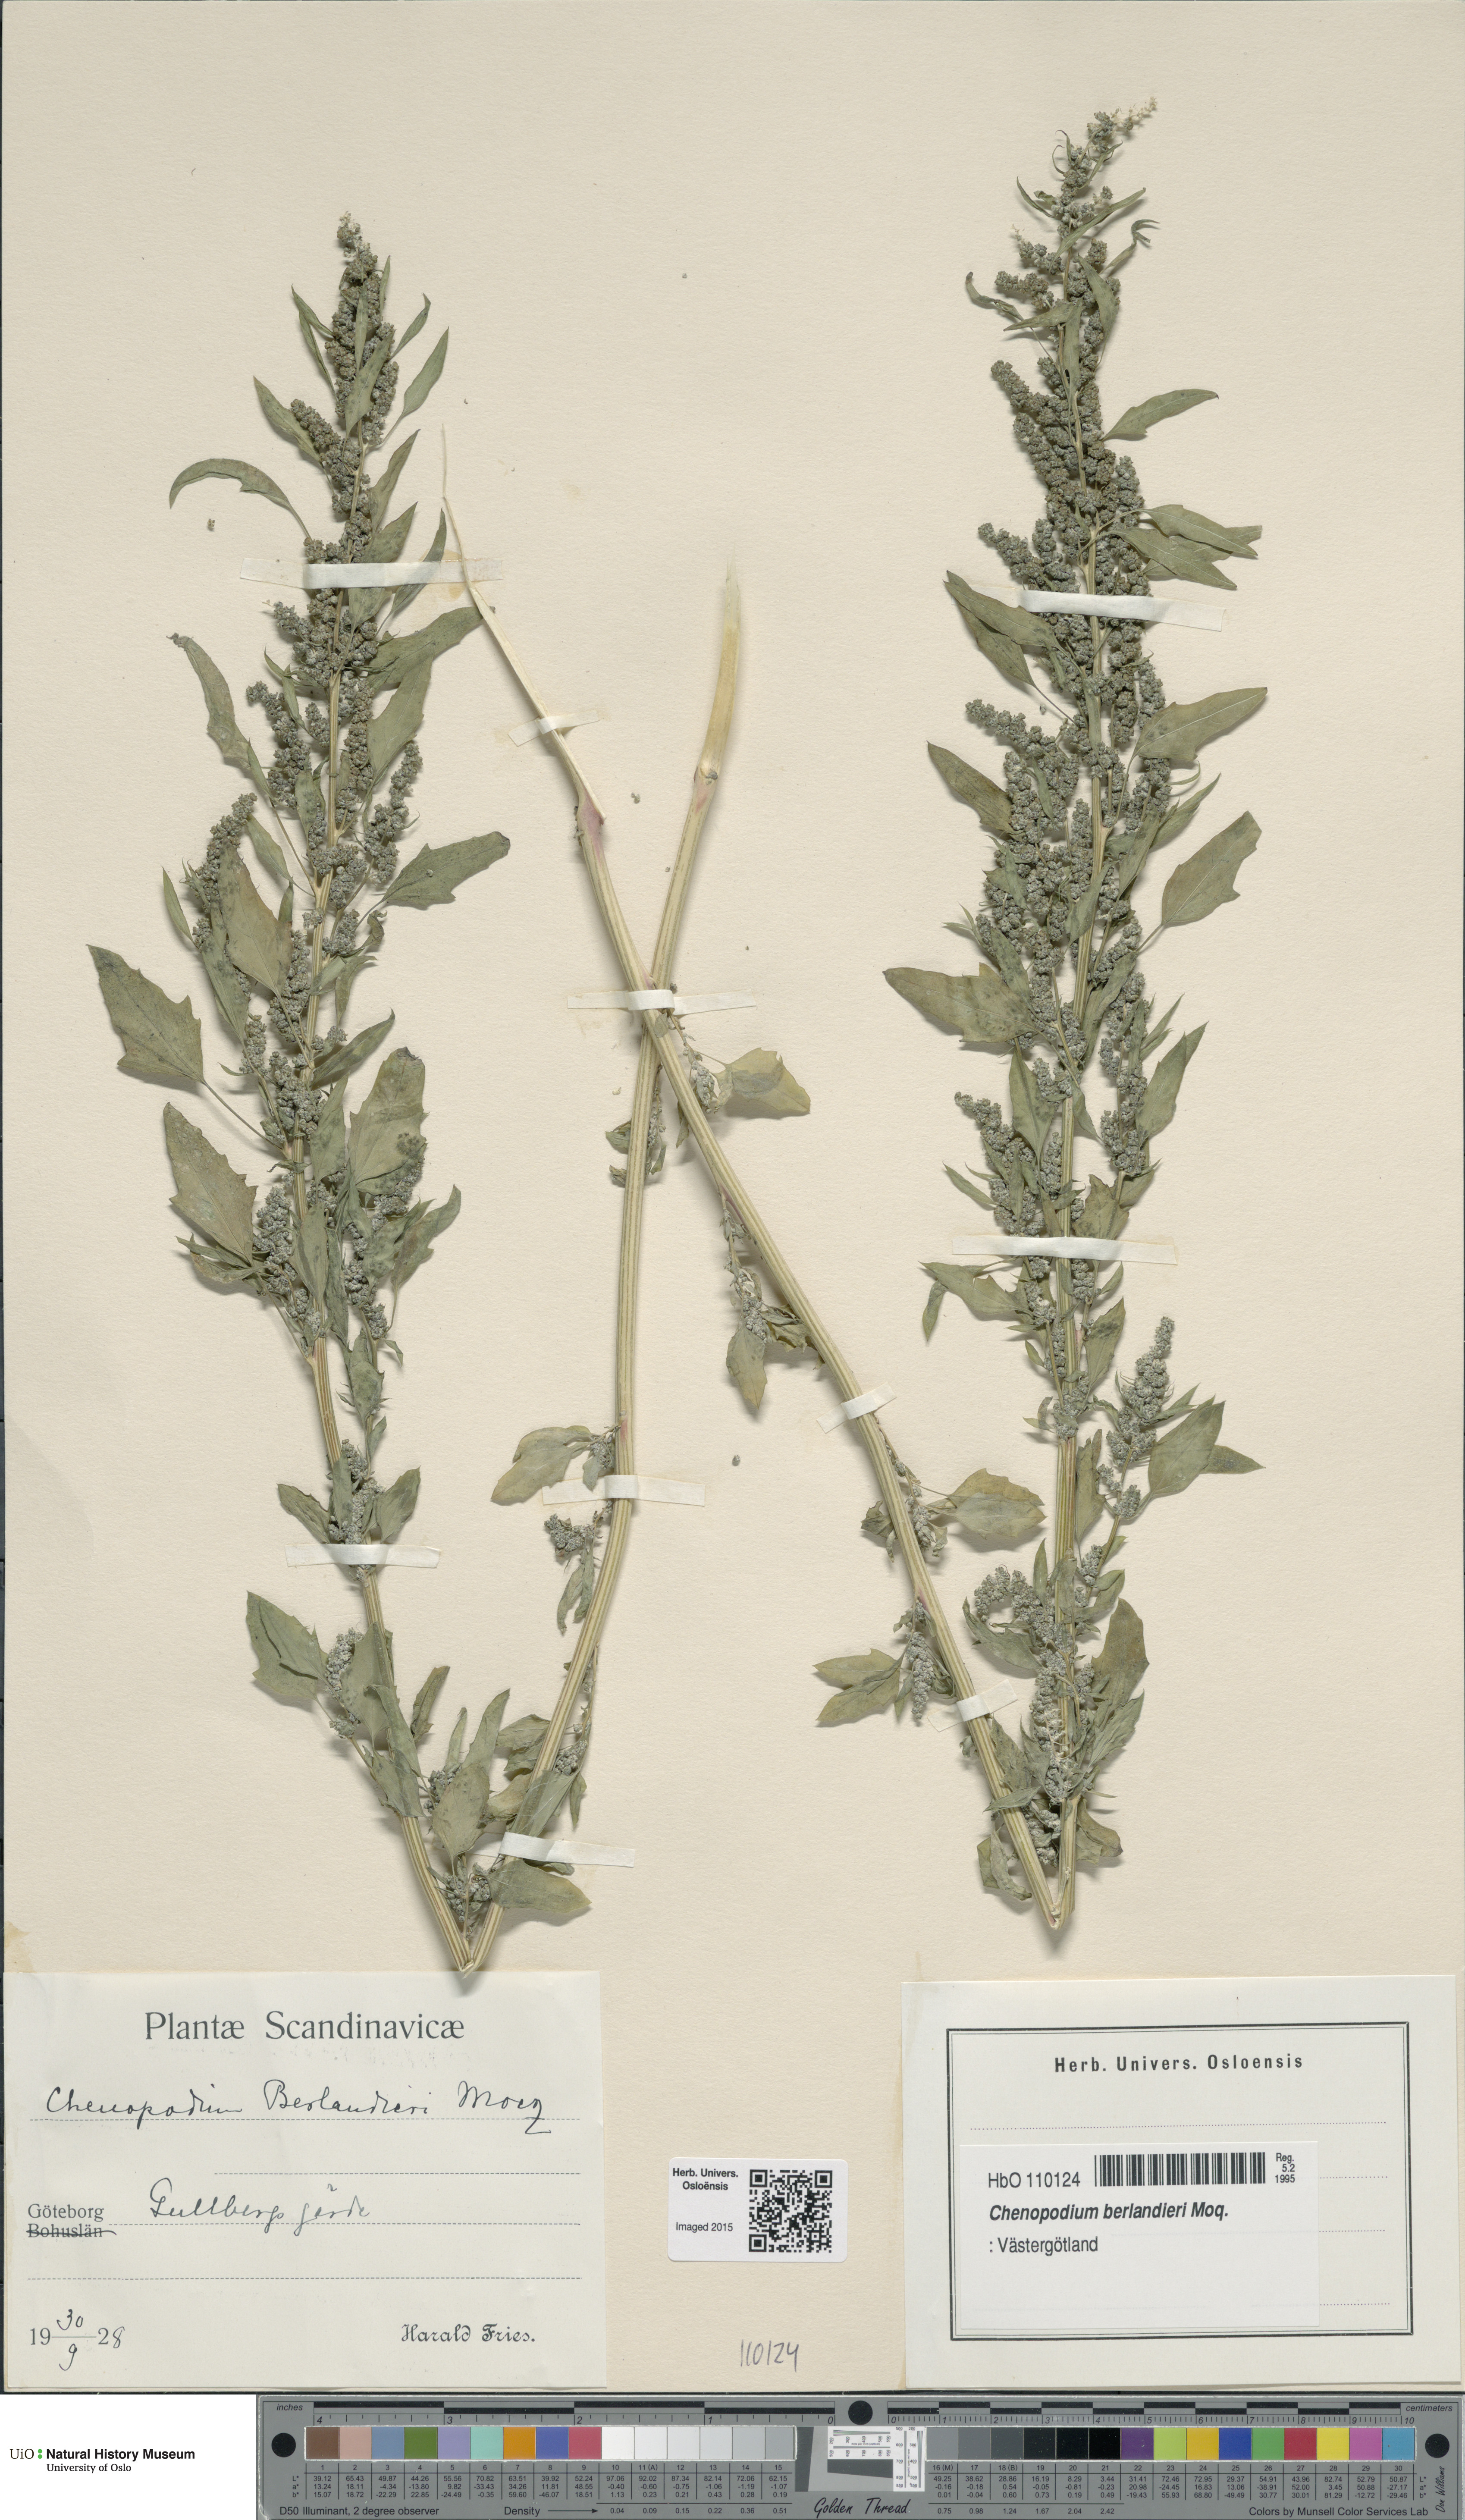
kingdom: Plantae
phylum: Tracheophyta
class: Magnoliopsida
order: Caryophyllales
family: Amaranthaceae
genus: Chenopodium
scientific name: Chenopodium berlandieri
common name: Pit-seed goosefoot
